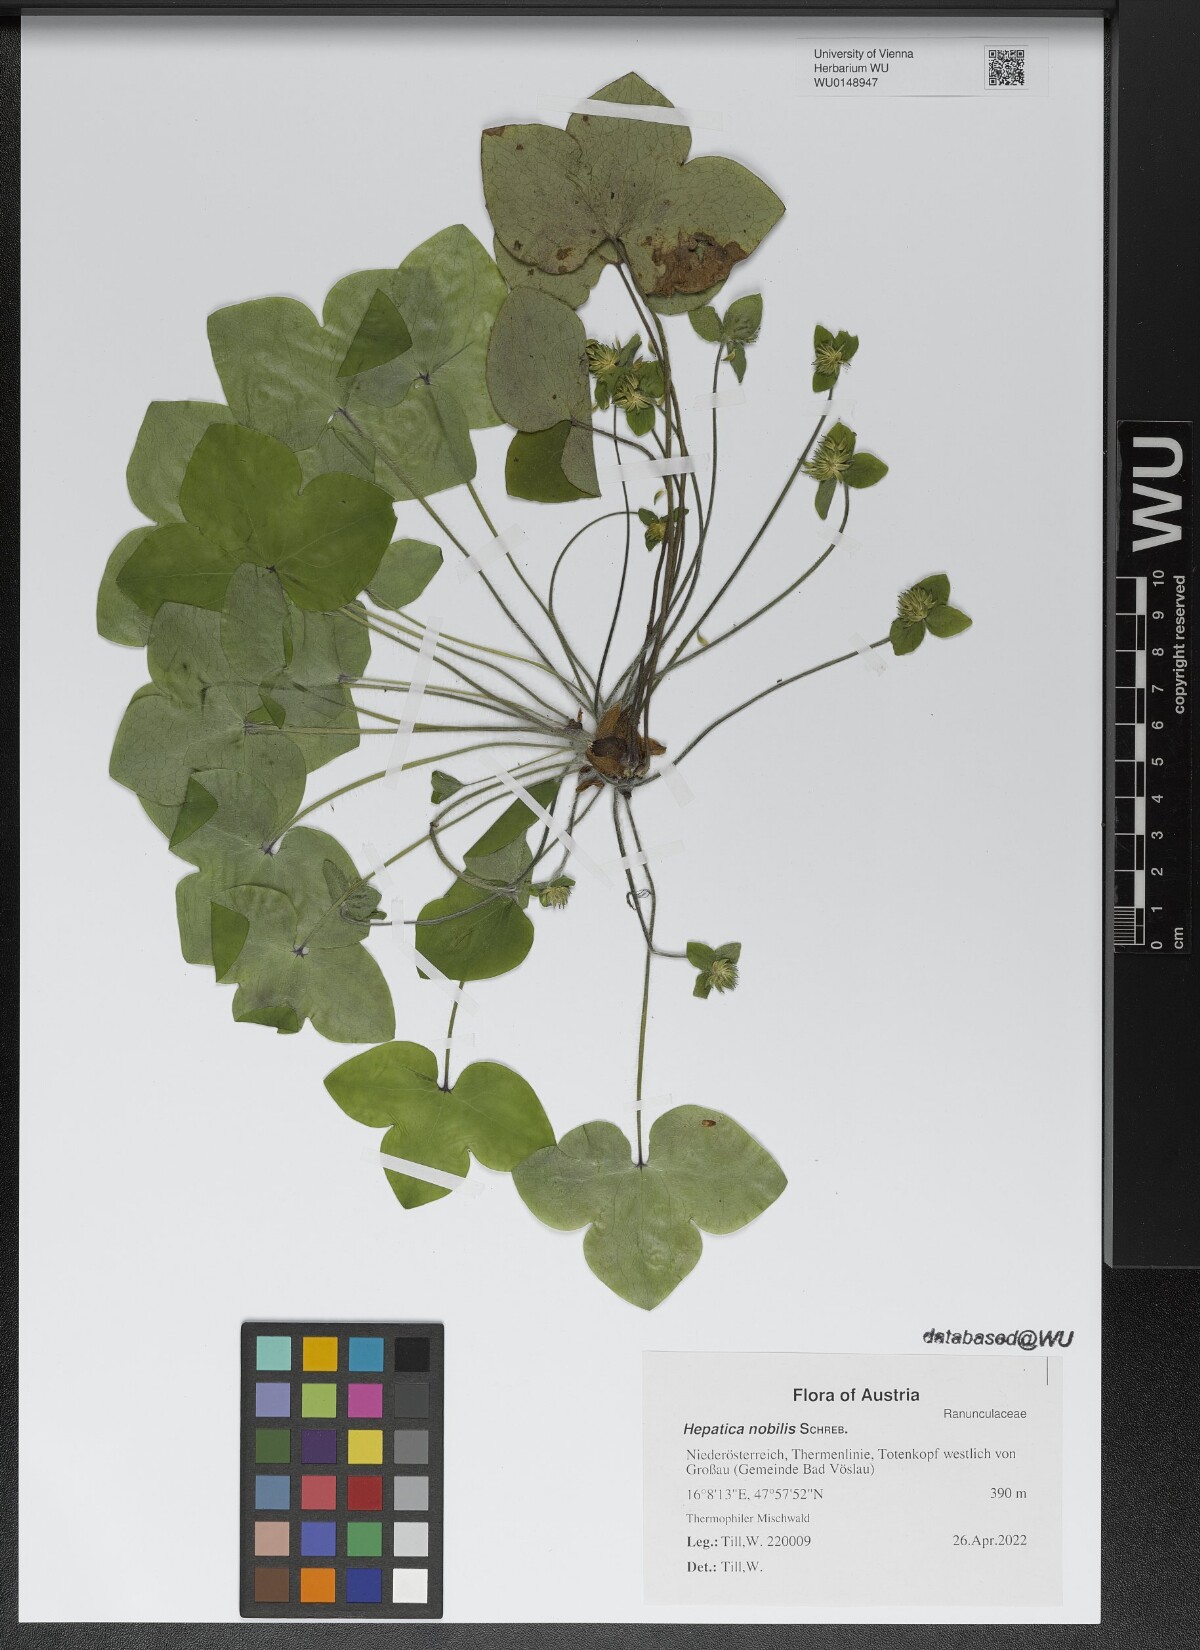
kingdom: Plantae
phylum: Tracheophyta
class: Magnoliopsida
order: Ranunculales
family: Ranunculaceae
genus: Hepatica
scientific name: Hepatica nobilis
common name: Liverleaf
